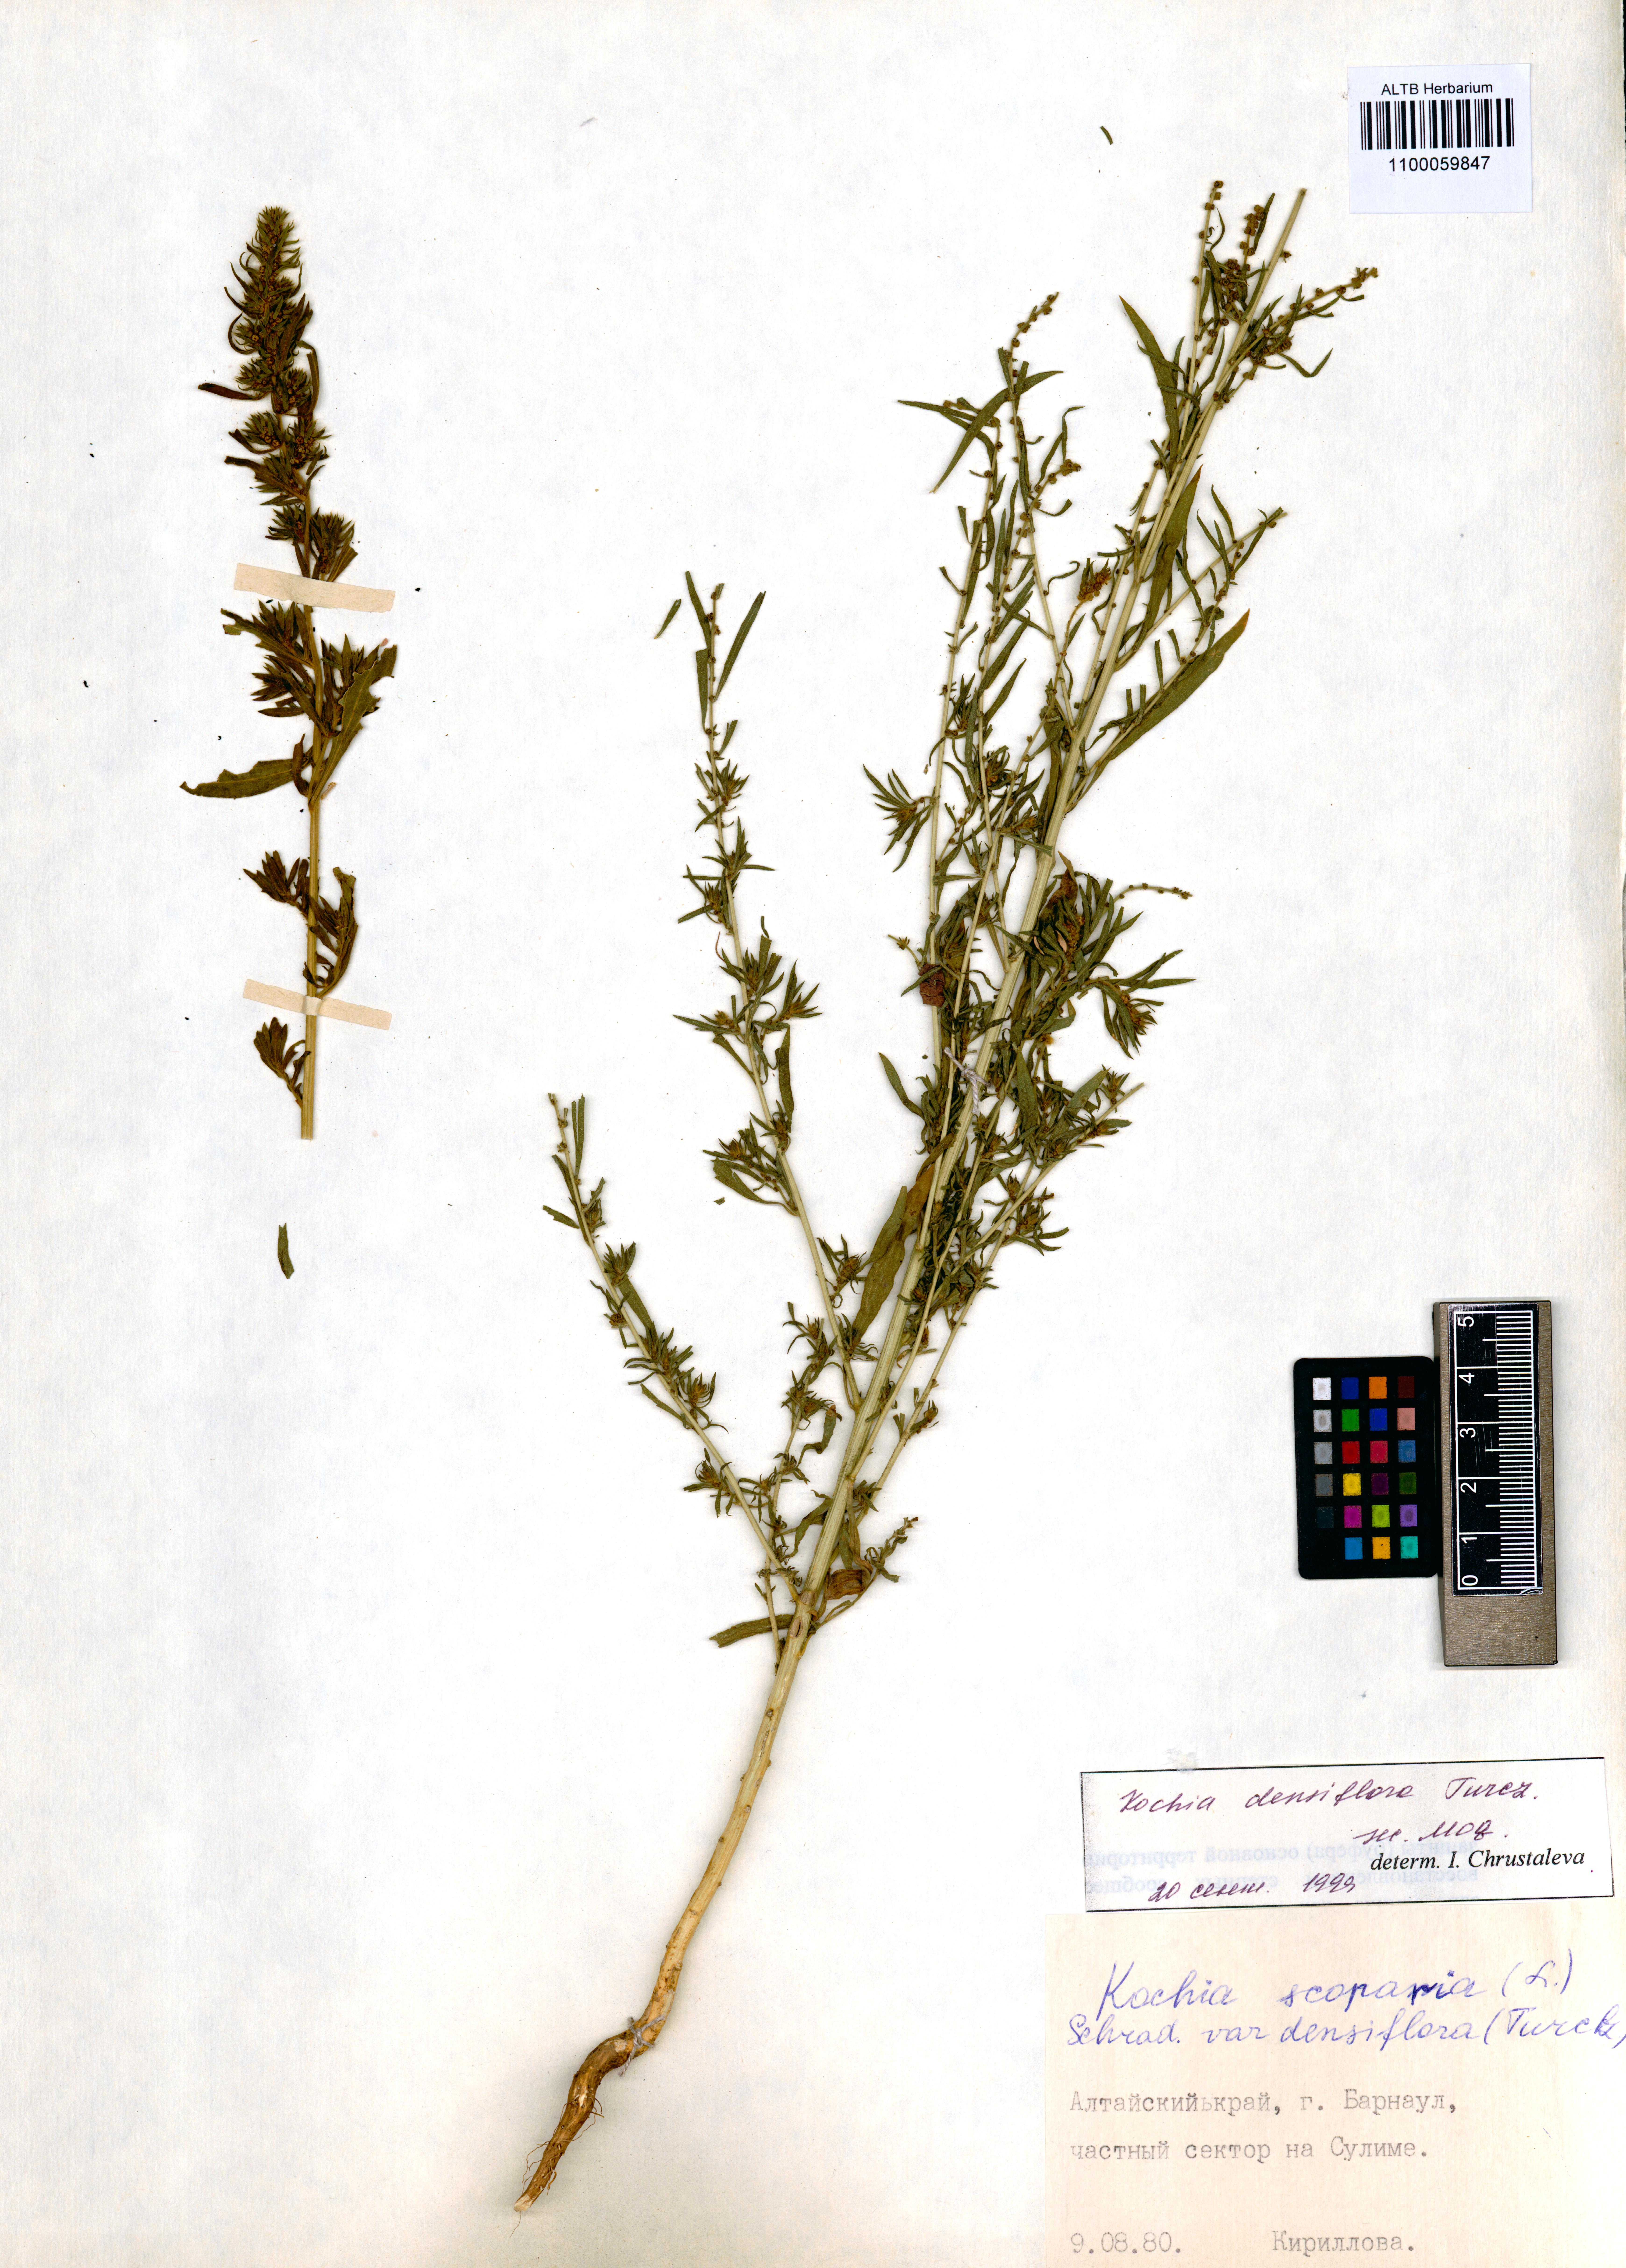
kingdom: Plantae
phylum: Tracheophyta
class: Magnoliopsida
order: Caryophyllales
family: Amaranthaceae
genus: Bassia
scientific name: Bassia scoparia
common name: Belvedere
